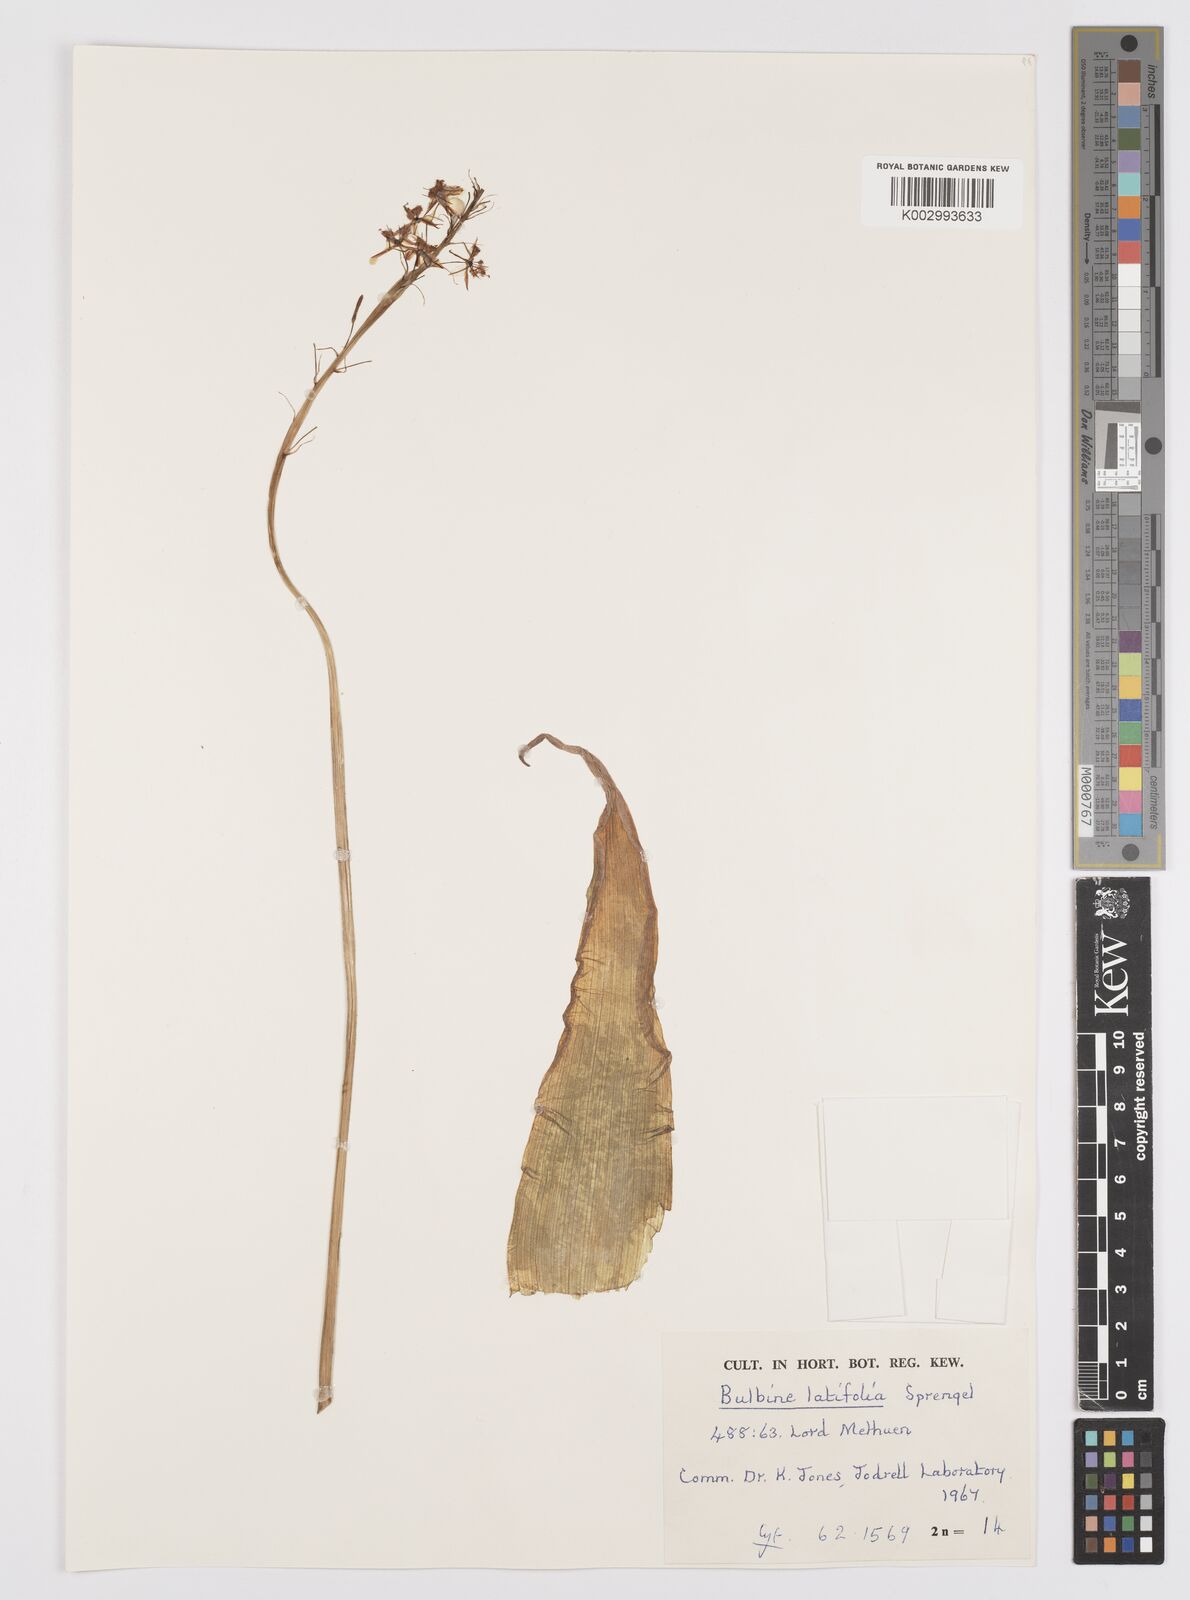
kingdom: Plantae
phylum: Tracheophyta
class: Liliopsida
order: Asparagales
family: Asphodelaceae
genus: Bulbine
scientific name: Bulbine latifolia
